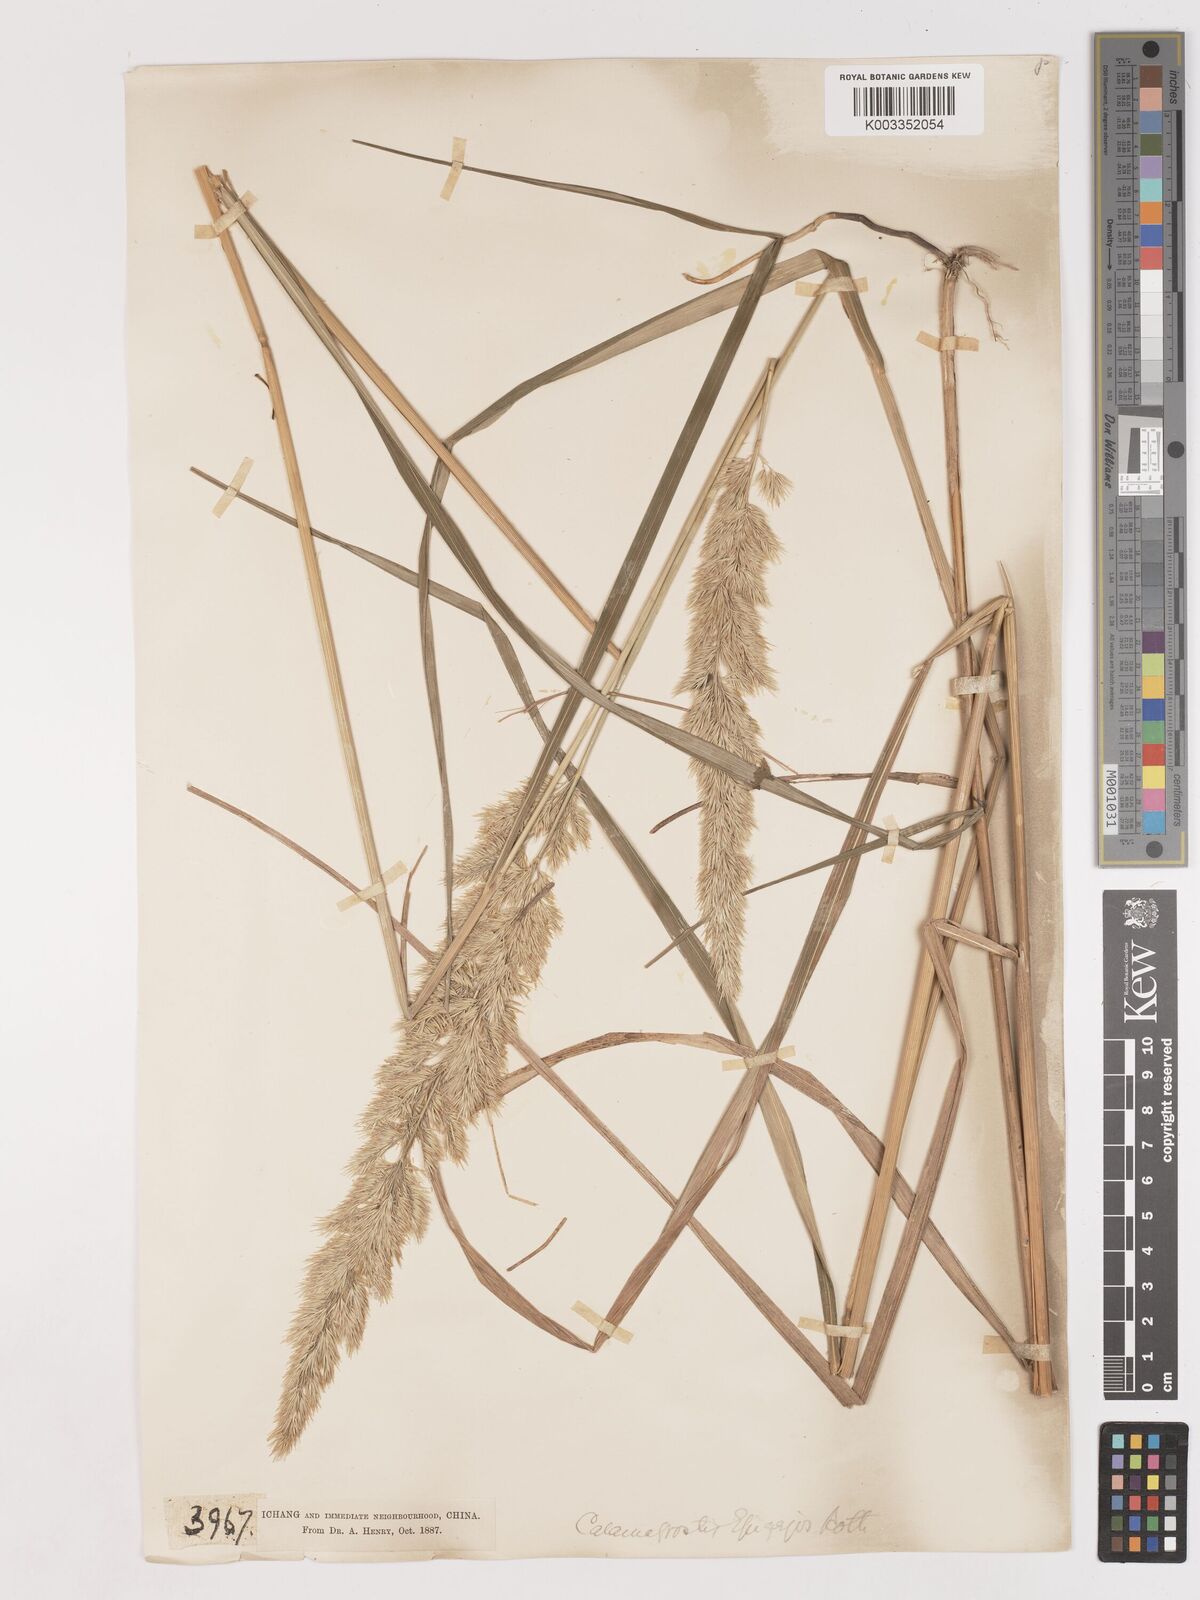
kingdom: Plantae
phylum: Tracheophyta
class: Liliopsida
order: Poales
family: Poaceae
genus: Calamagrostis
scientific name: Calamagrostis epigejos
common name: Wood small-reed
